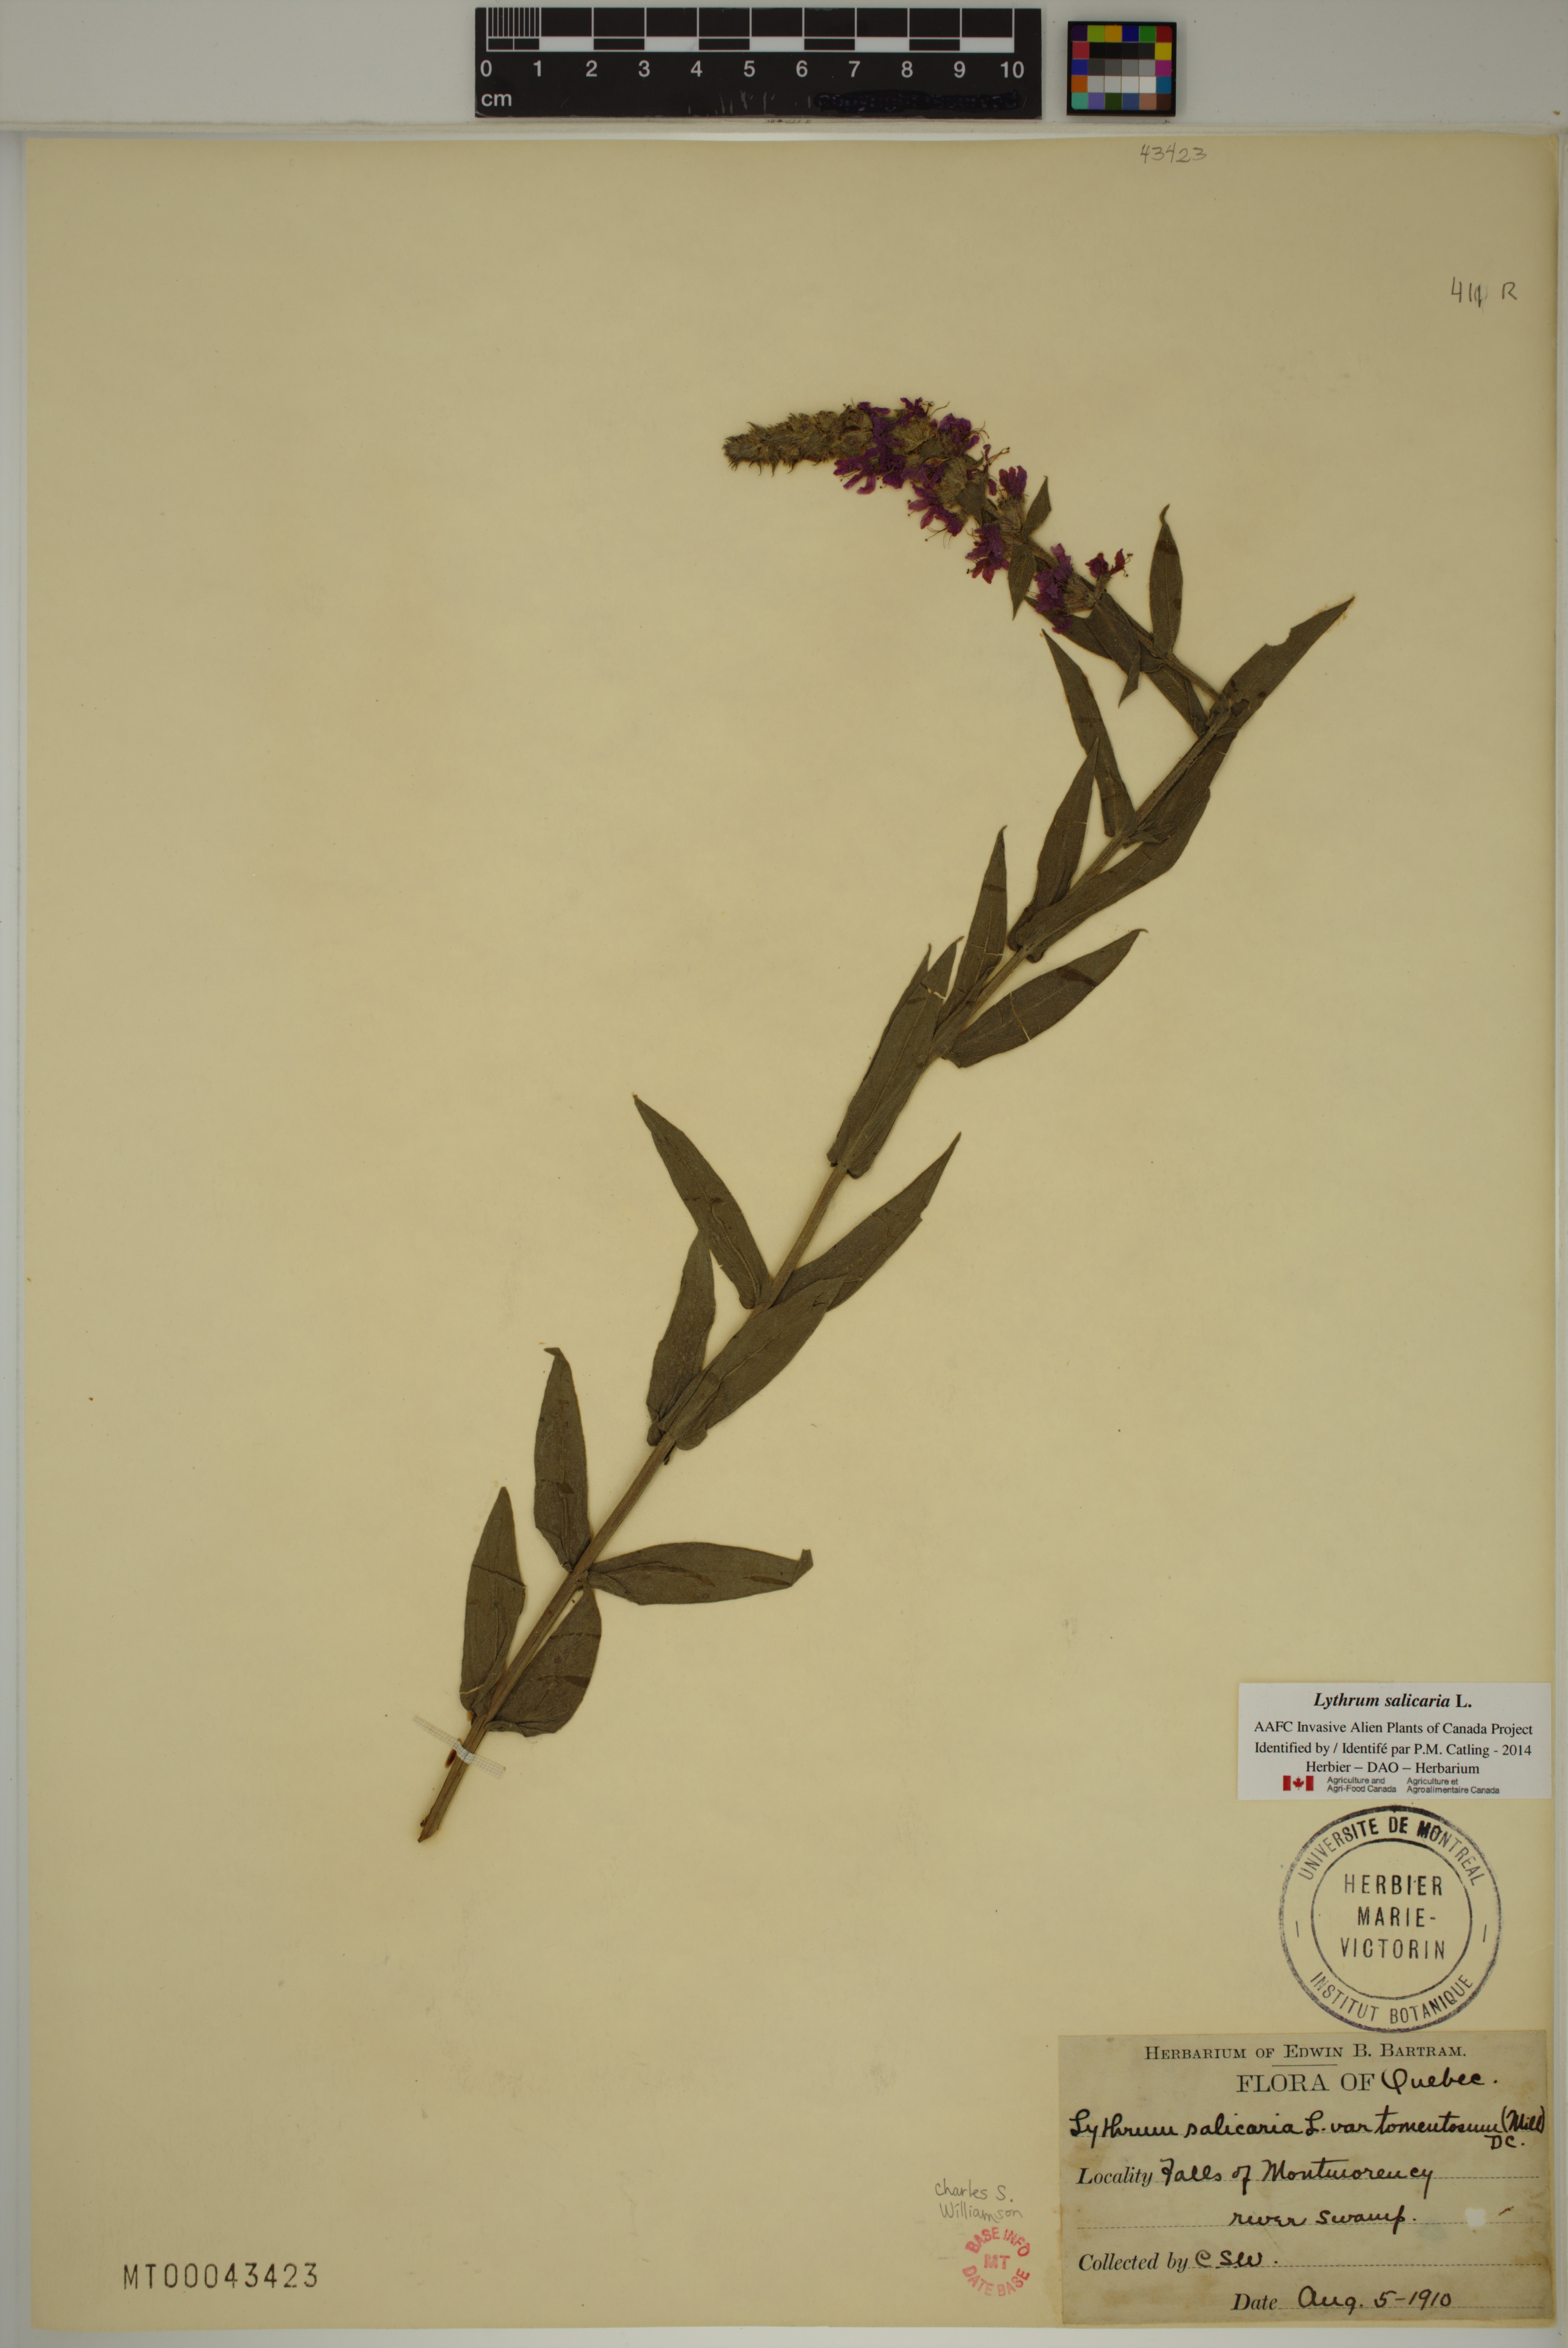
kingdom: Plantae
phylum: Tracheophyta
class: Magnoliopsida
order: Myrtales
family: Lythraceae
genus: Lythrum
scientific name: Lythrum salicaria
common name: Purple loosestrife
